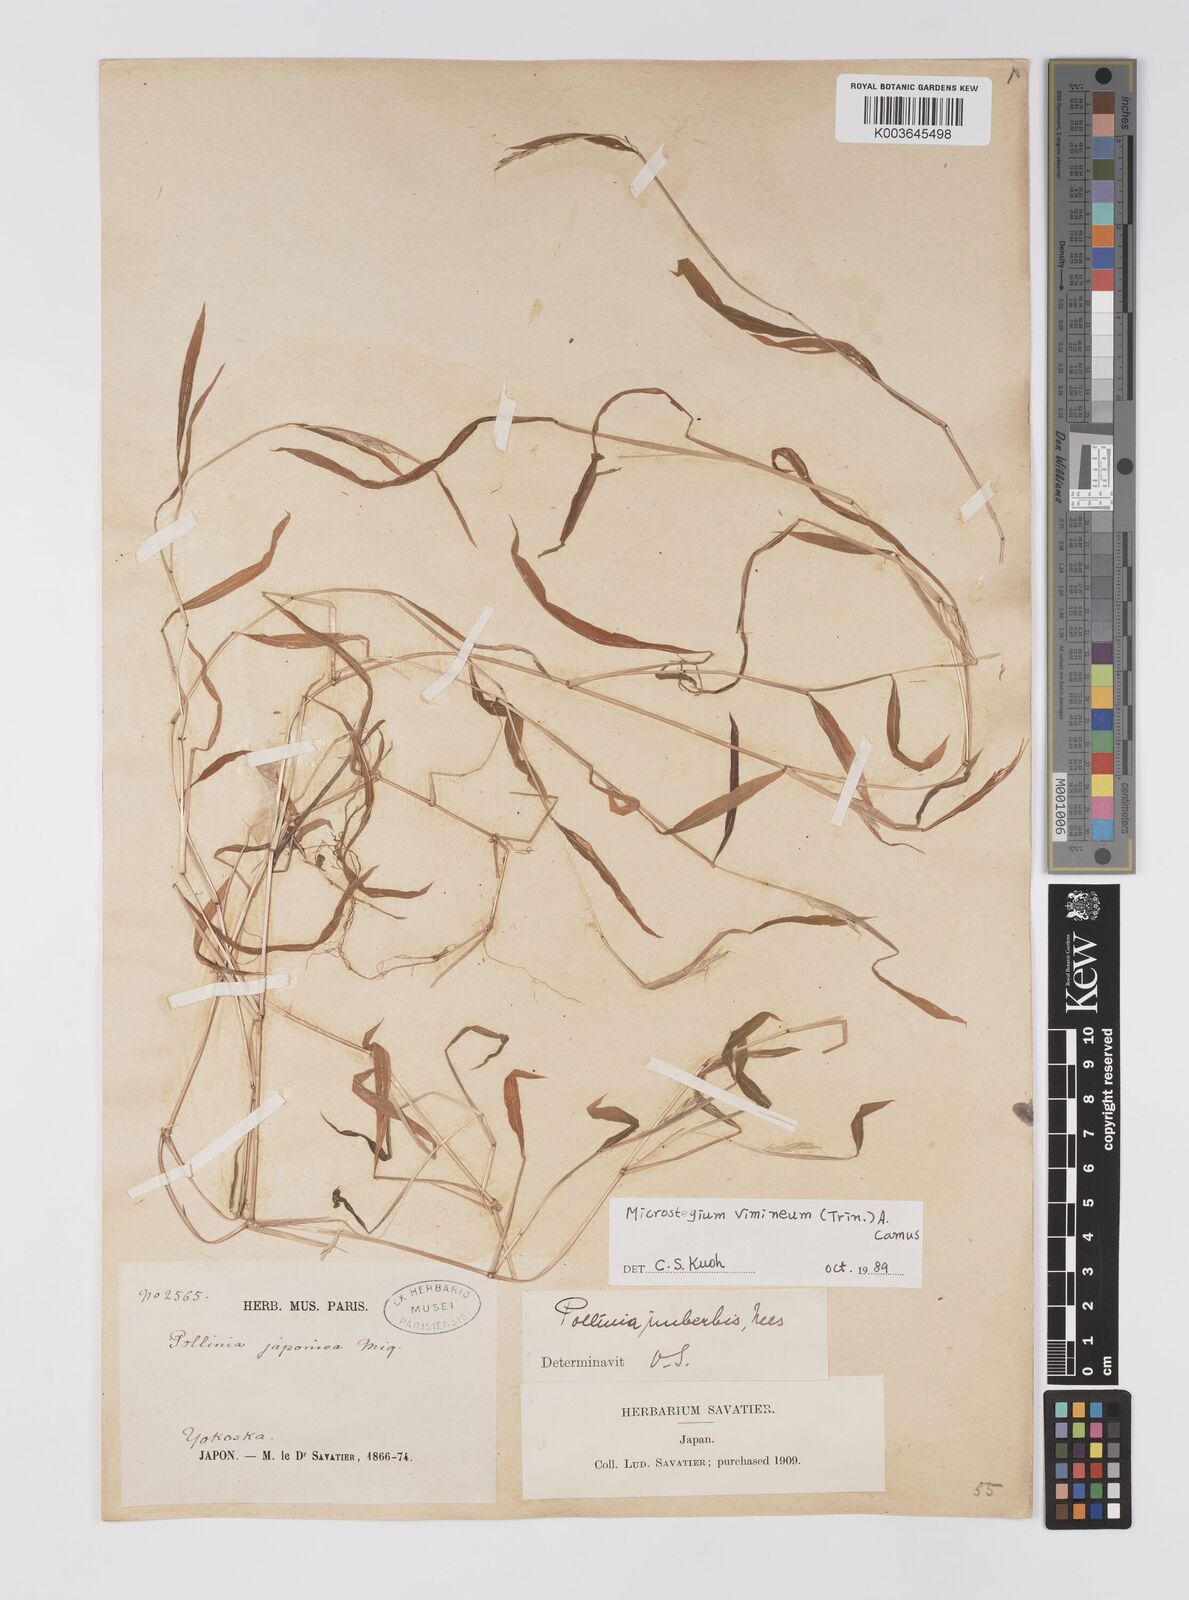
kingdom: Plantae
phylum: Tracheophyta
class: Liliopsida
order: Poales
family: Poaceae
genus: Microstegium
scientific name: Microstegium vimineum
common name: Japanese stiltgrass
